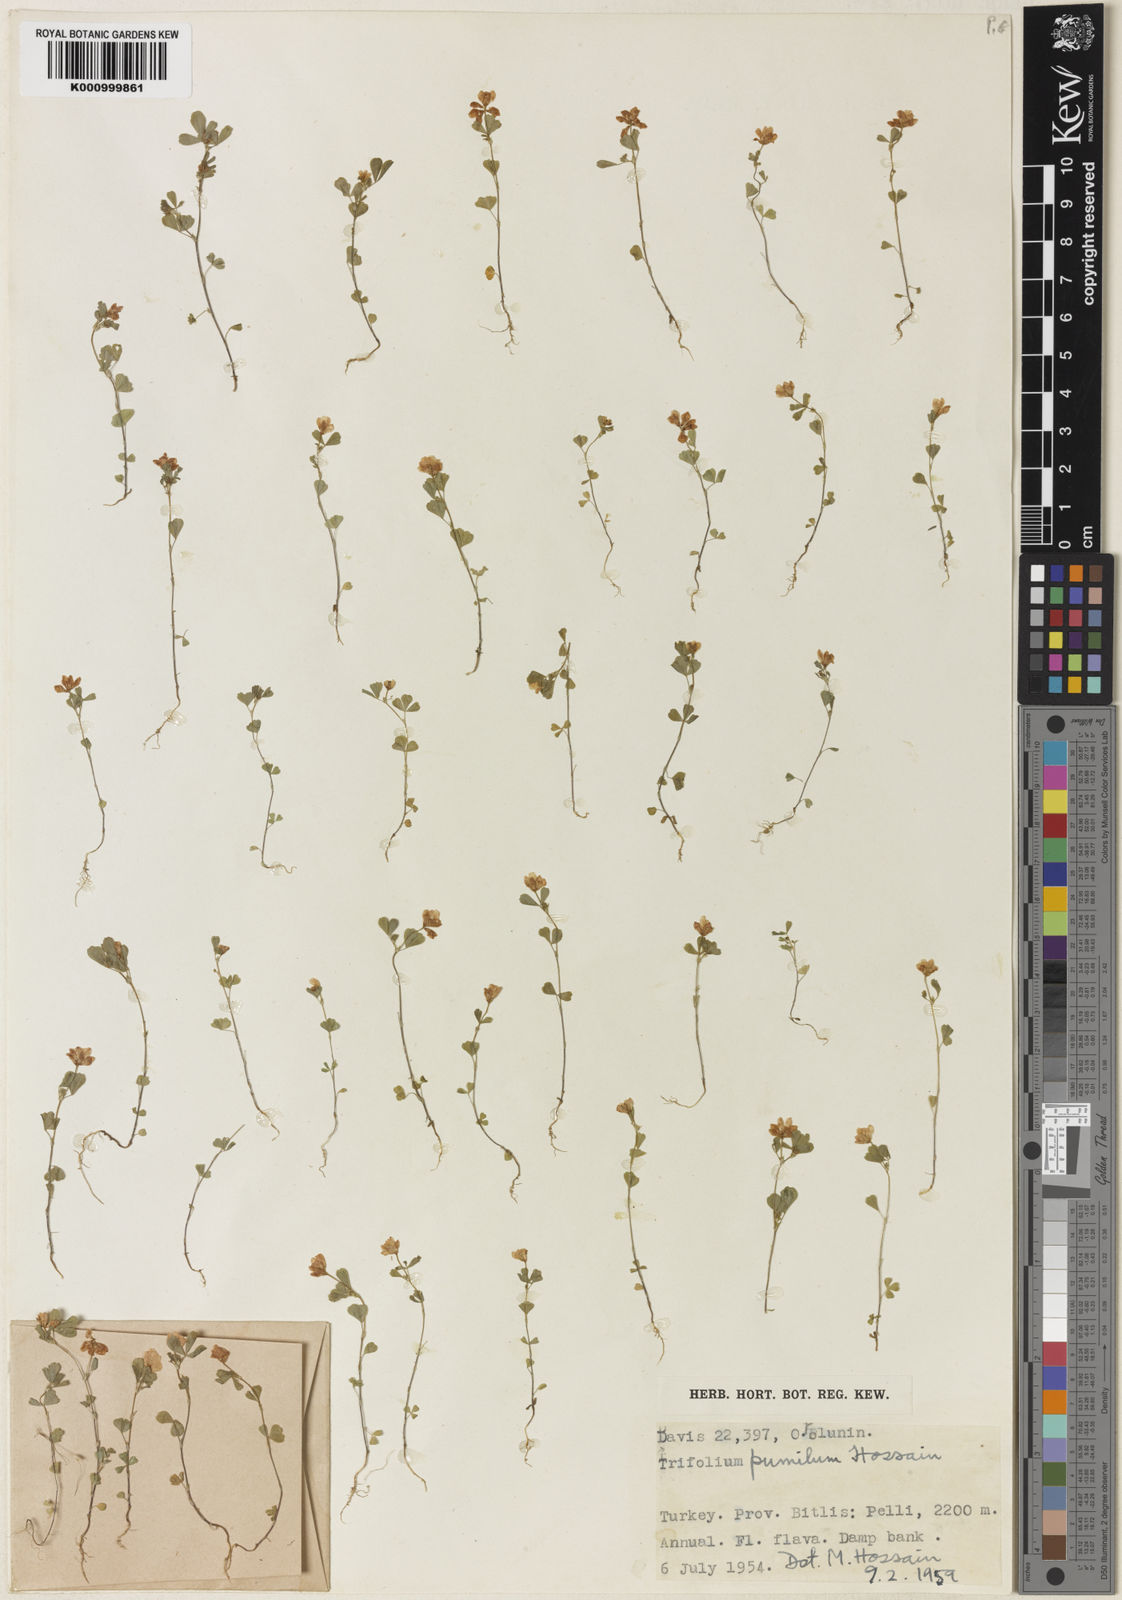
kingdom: Plantae
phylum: Tracheophyta
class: Magnoliopsida
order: Fabales
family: Fabaceae
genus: Trifolium
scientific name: Trifolium campestre
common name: Field clover
